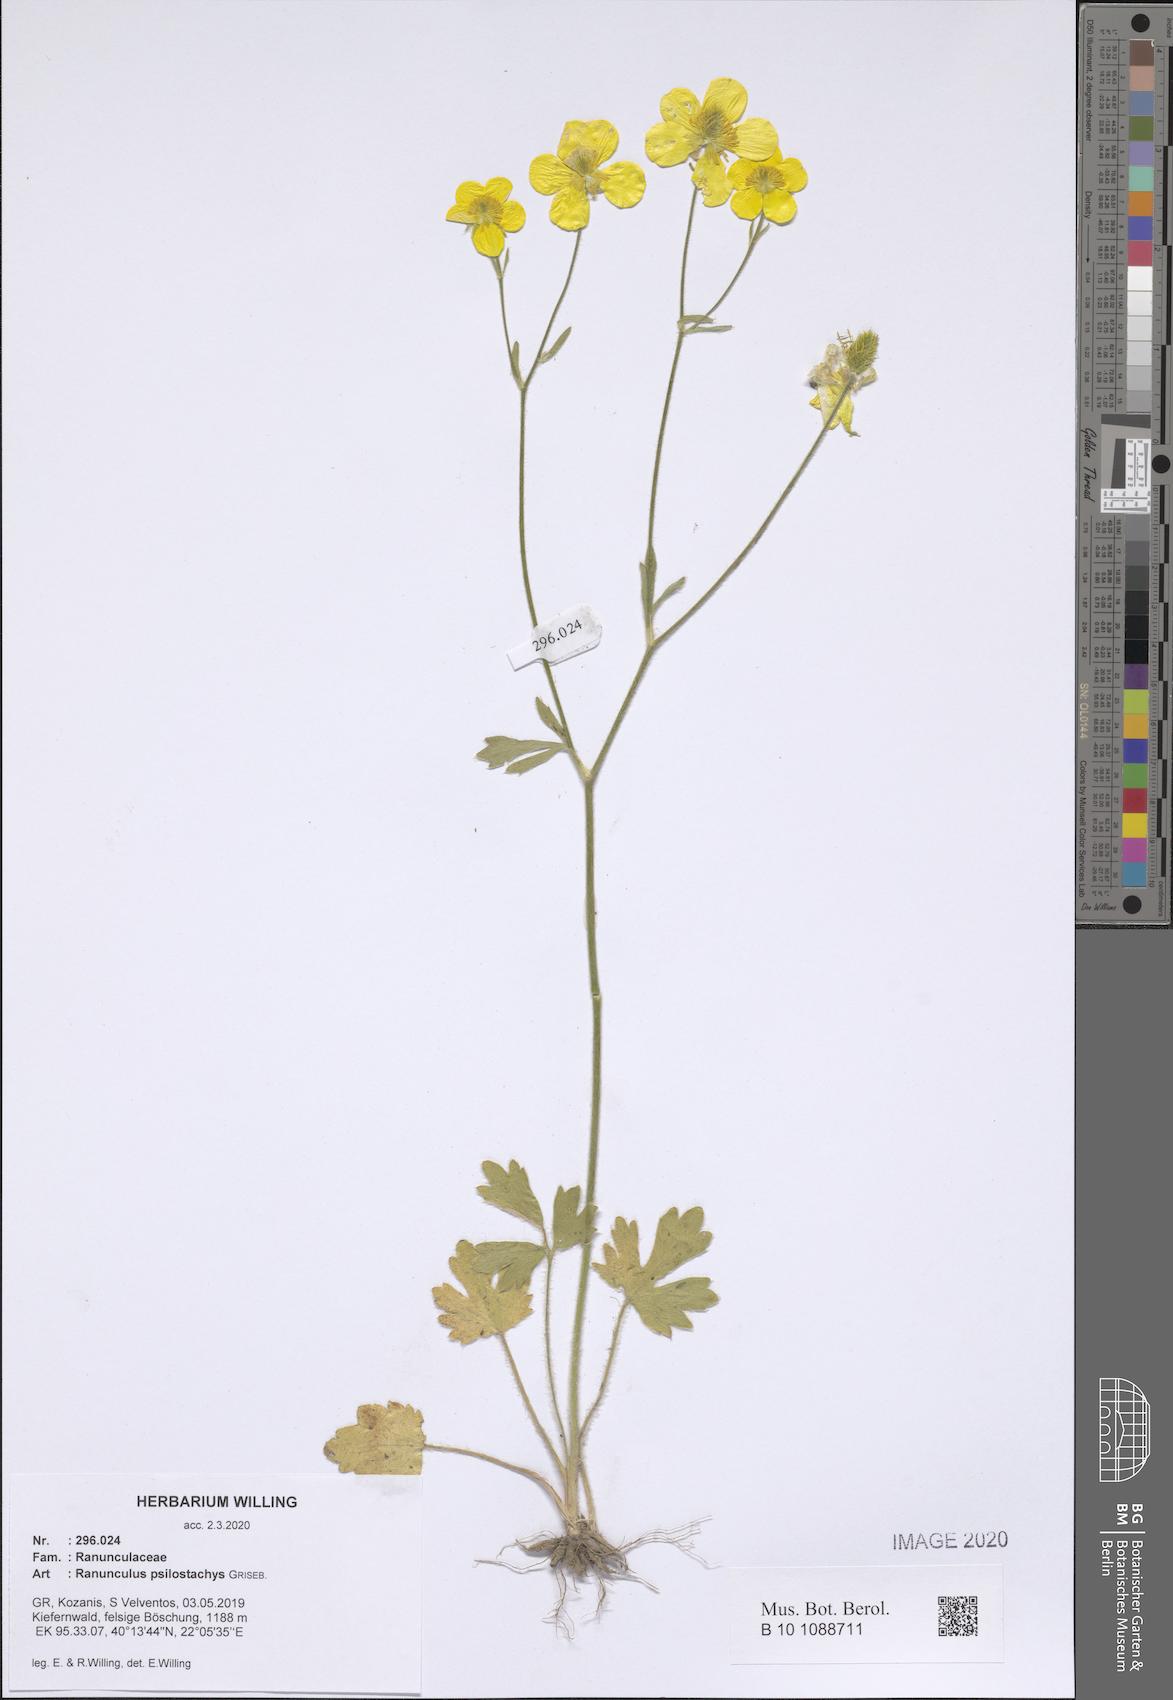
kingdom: Plantae
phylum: Tracheophyta
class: Magnoliopsida
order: Ranunculales
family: Ranunculaceae
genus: Ranunculus
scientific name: Ranunculus psilostachys
